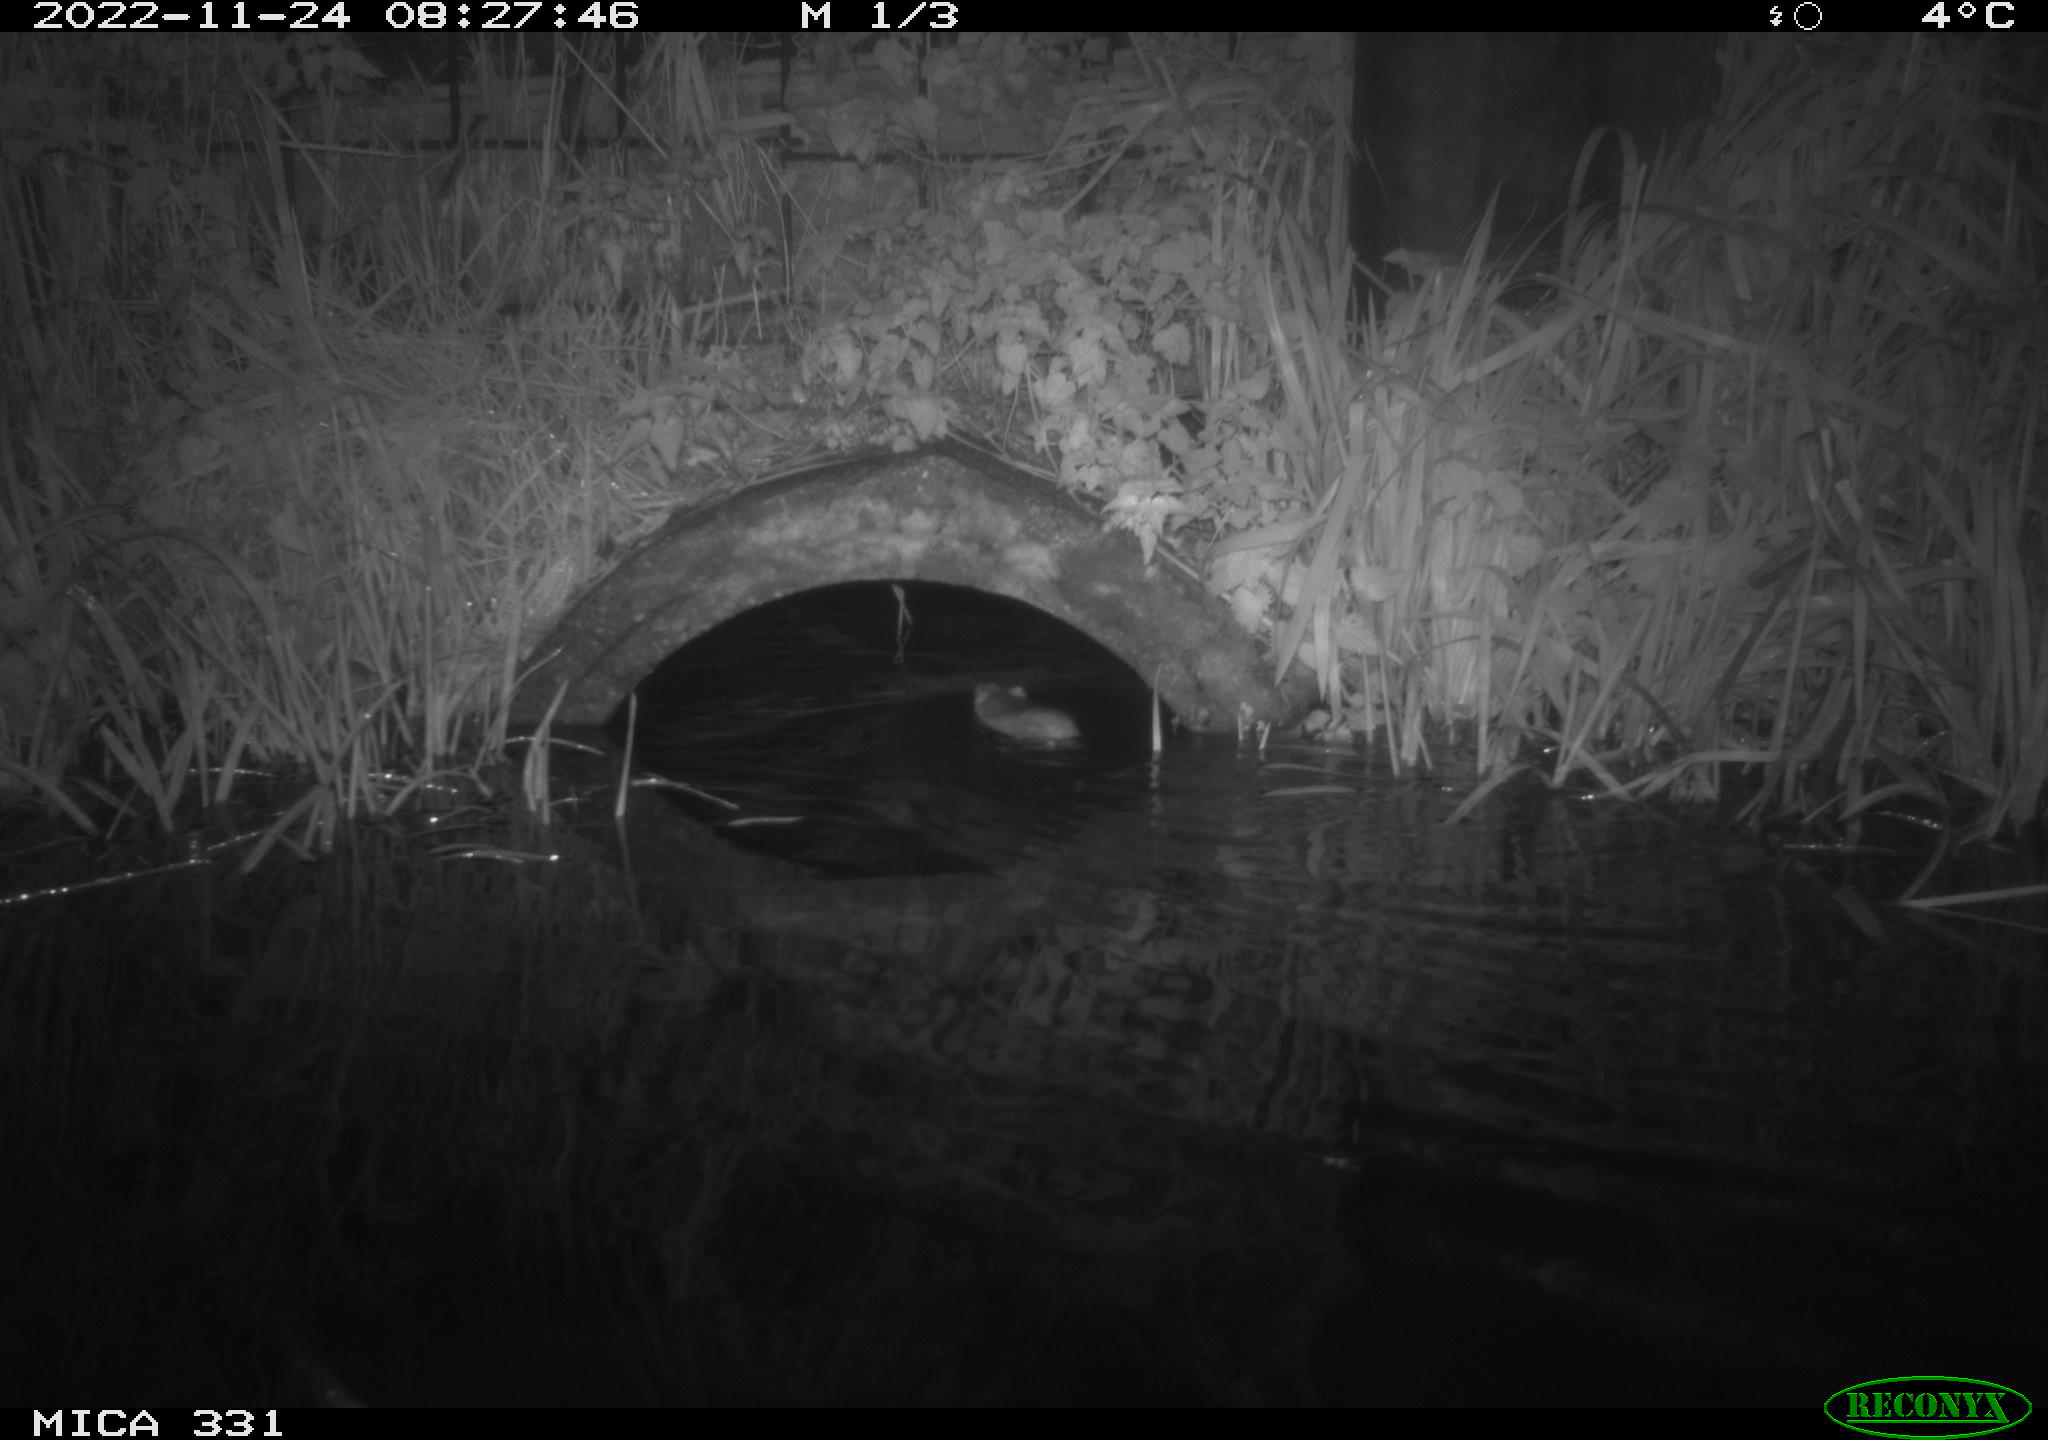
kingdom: Animalia
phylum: Chordata
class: Mammalia
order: Rodentia
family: Muridae
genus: Rattus
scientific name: Rattus norvegicus
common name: Brown rat
